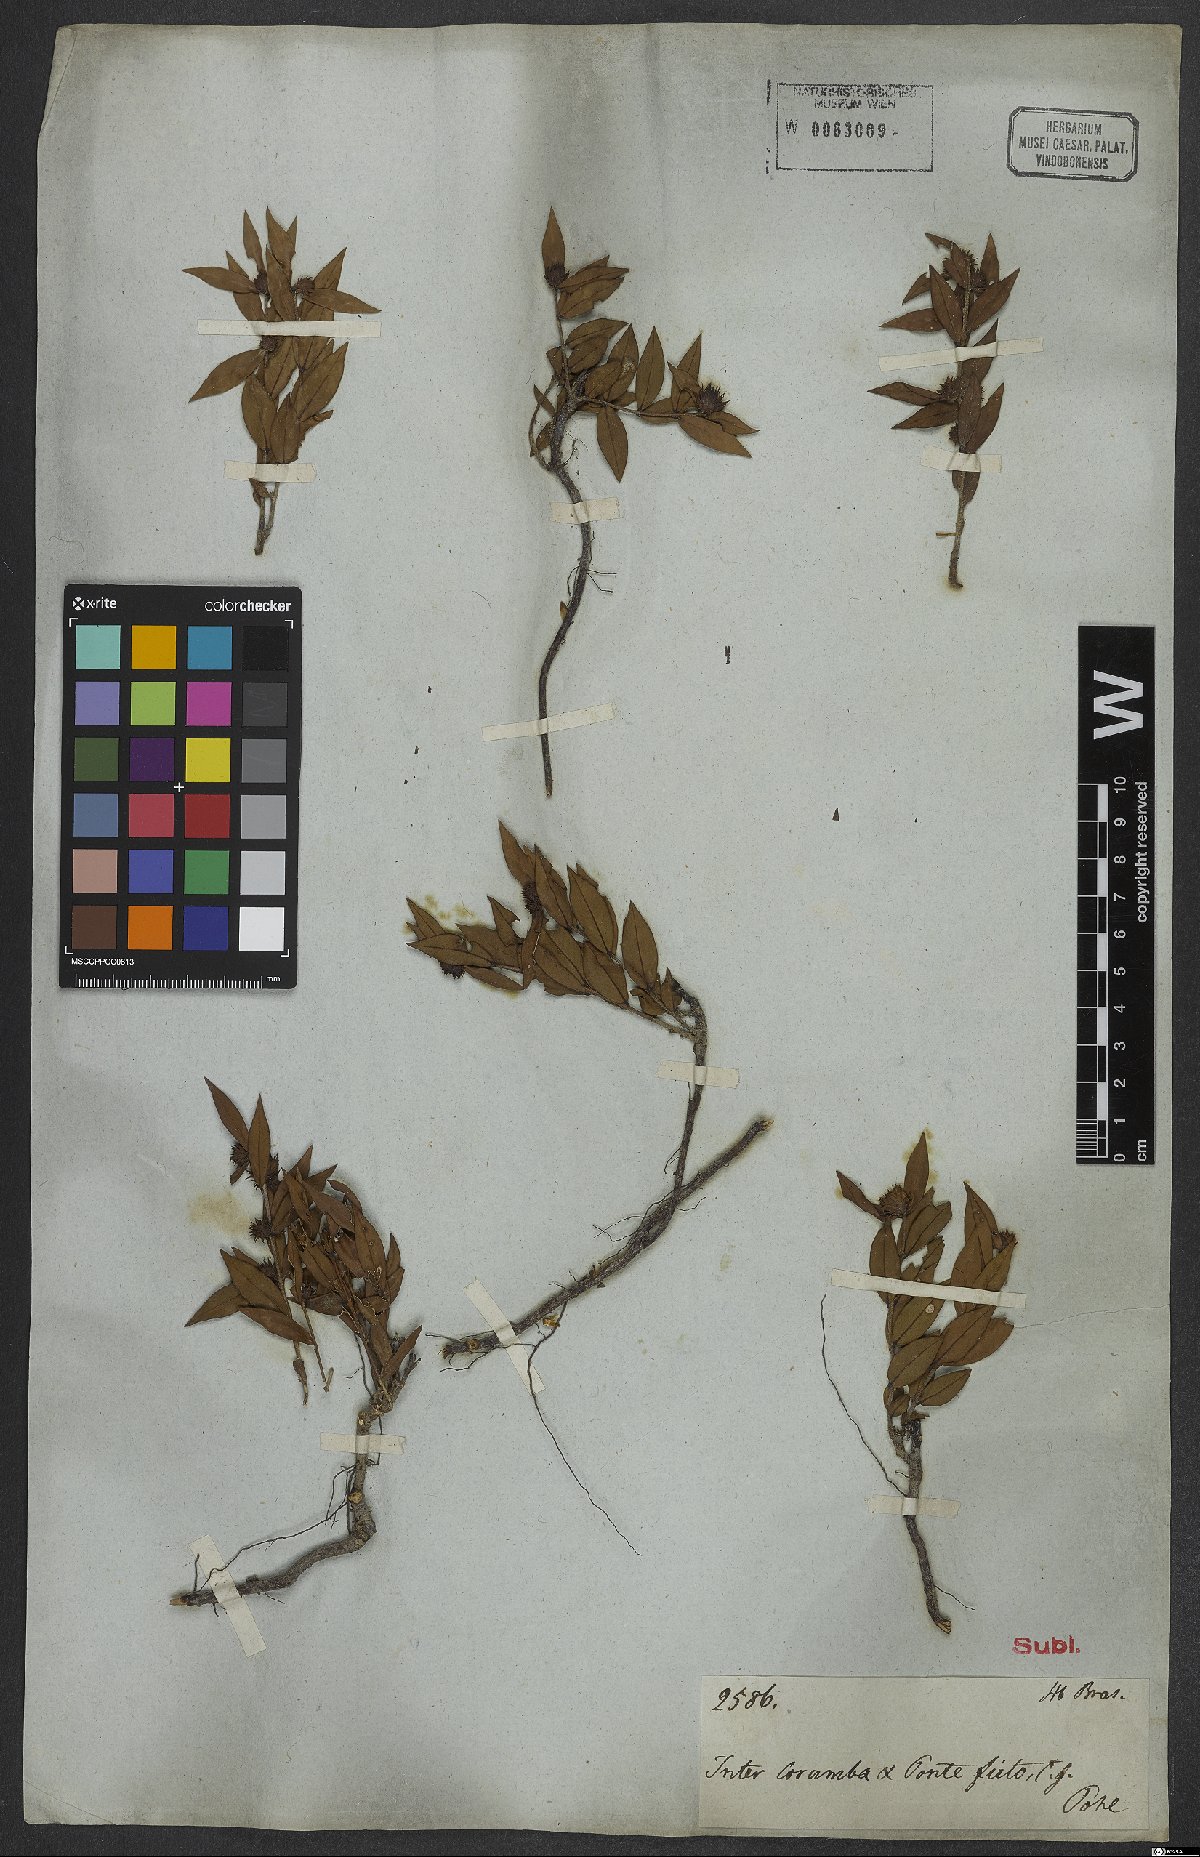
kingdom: Plantae
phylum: Tracheophyta
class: Magnoliopsida
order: Asterales
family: Asteraceae
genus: Chuquiraga
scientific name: Chuquiraga
